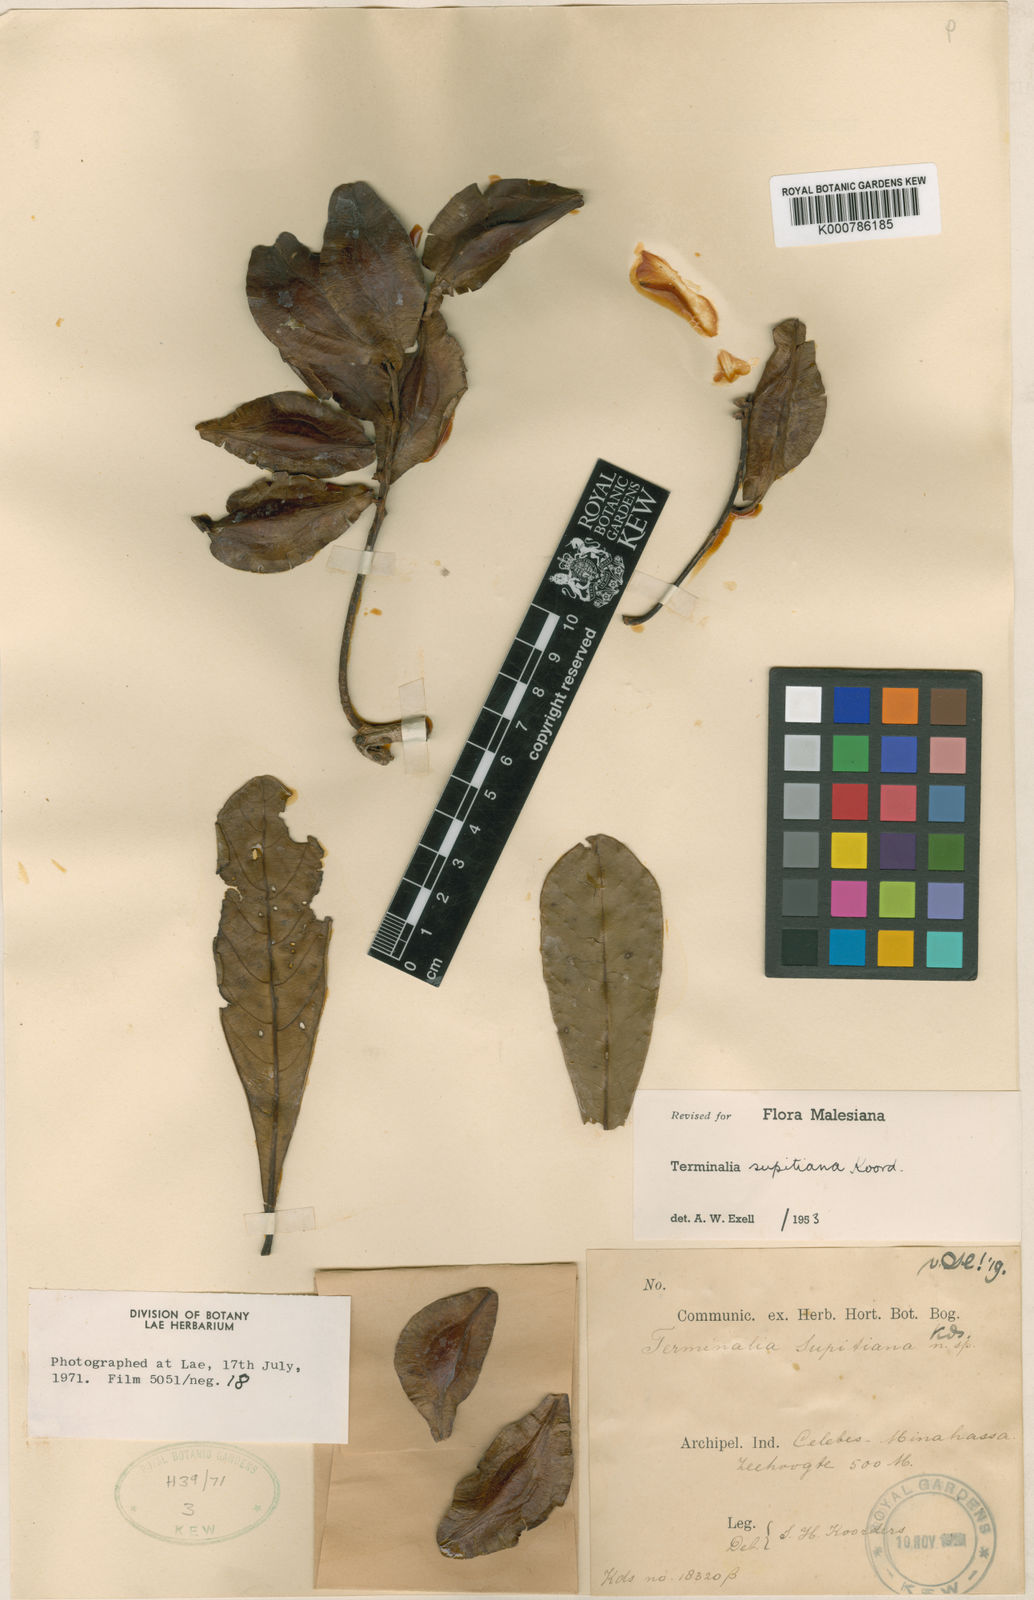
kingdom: Plantae
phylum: Tracheophyta
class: Magnoliopsida
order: Myrtales
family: Combretaceae
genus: Terminalia
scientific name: Terminalia supitiana
